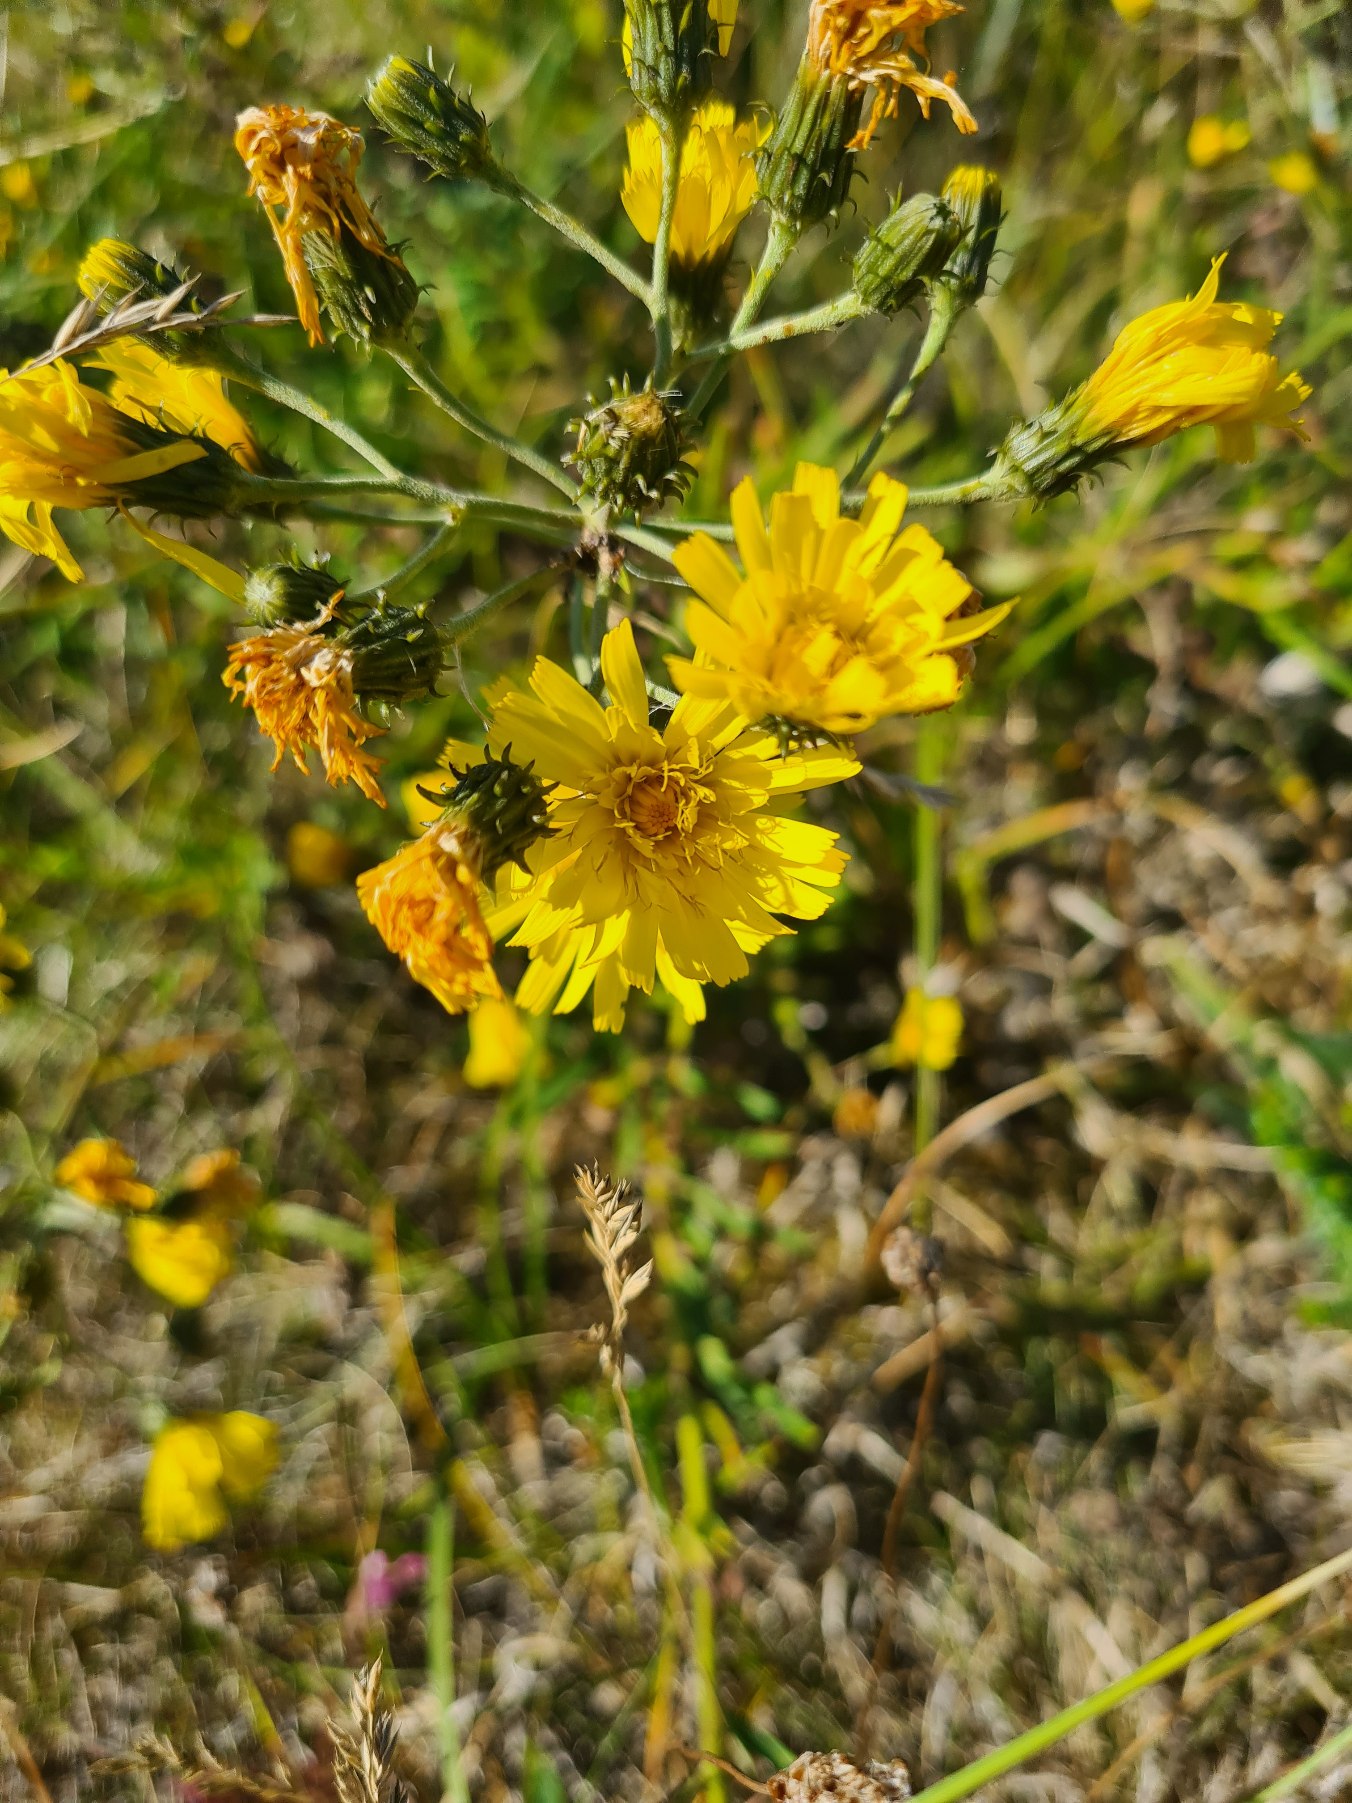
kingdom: Plantae
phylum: Tracheophyta
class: Magnoliopsida
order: Asterales
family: Asteraceae
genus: Hieracium
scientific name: Hieracium umbellatum
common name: Smalbladet høgeurt
